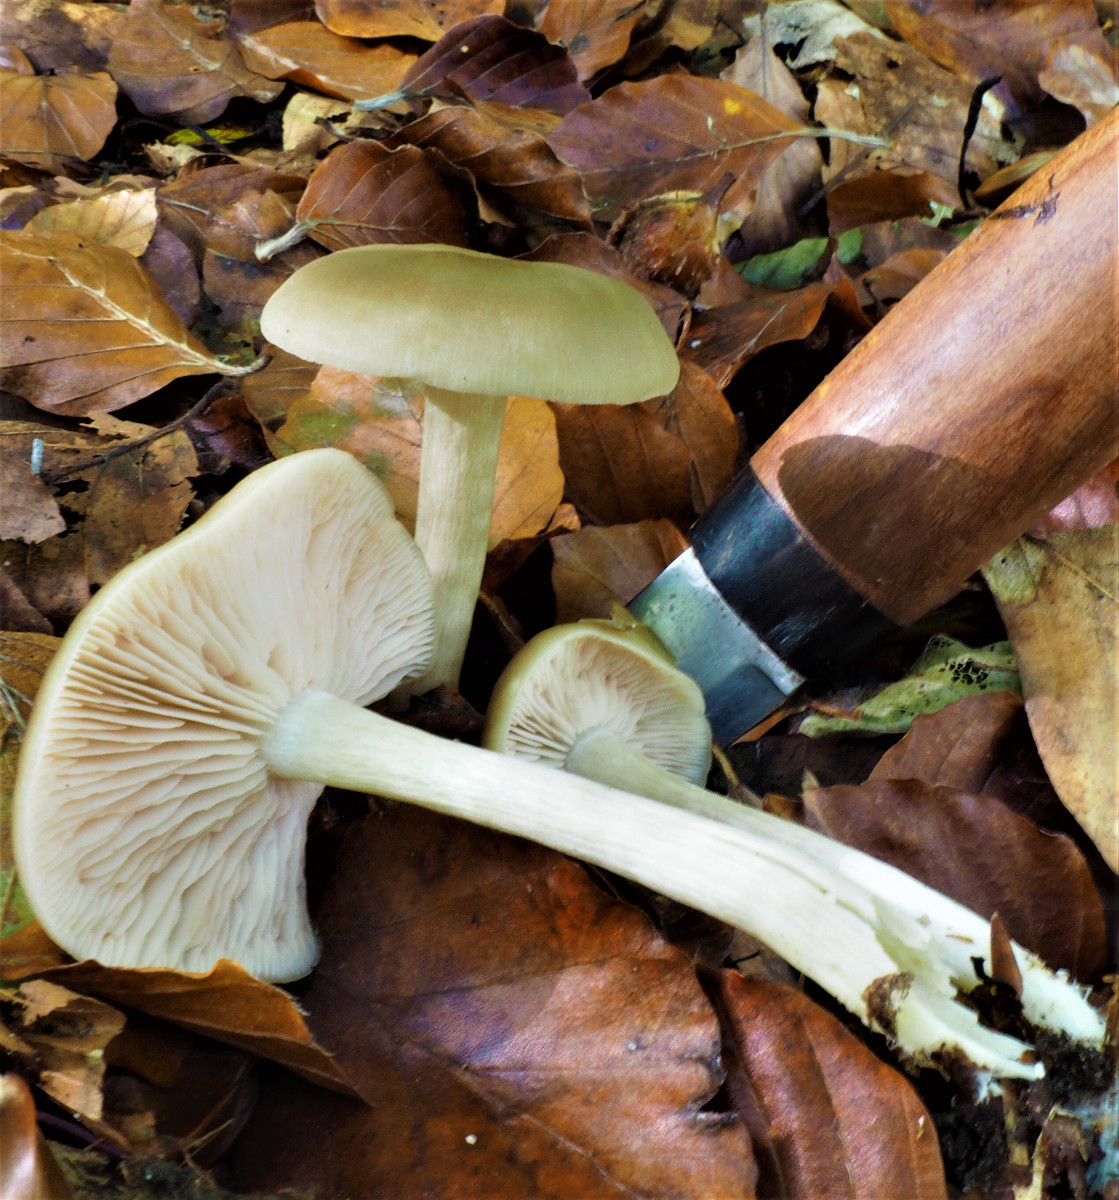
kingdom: Fungi
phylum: Basidiomycota
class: Agaricomycetes
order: Agaricales
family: Entolomataceae
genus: Entoloma
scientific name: Entoloma
